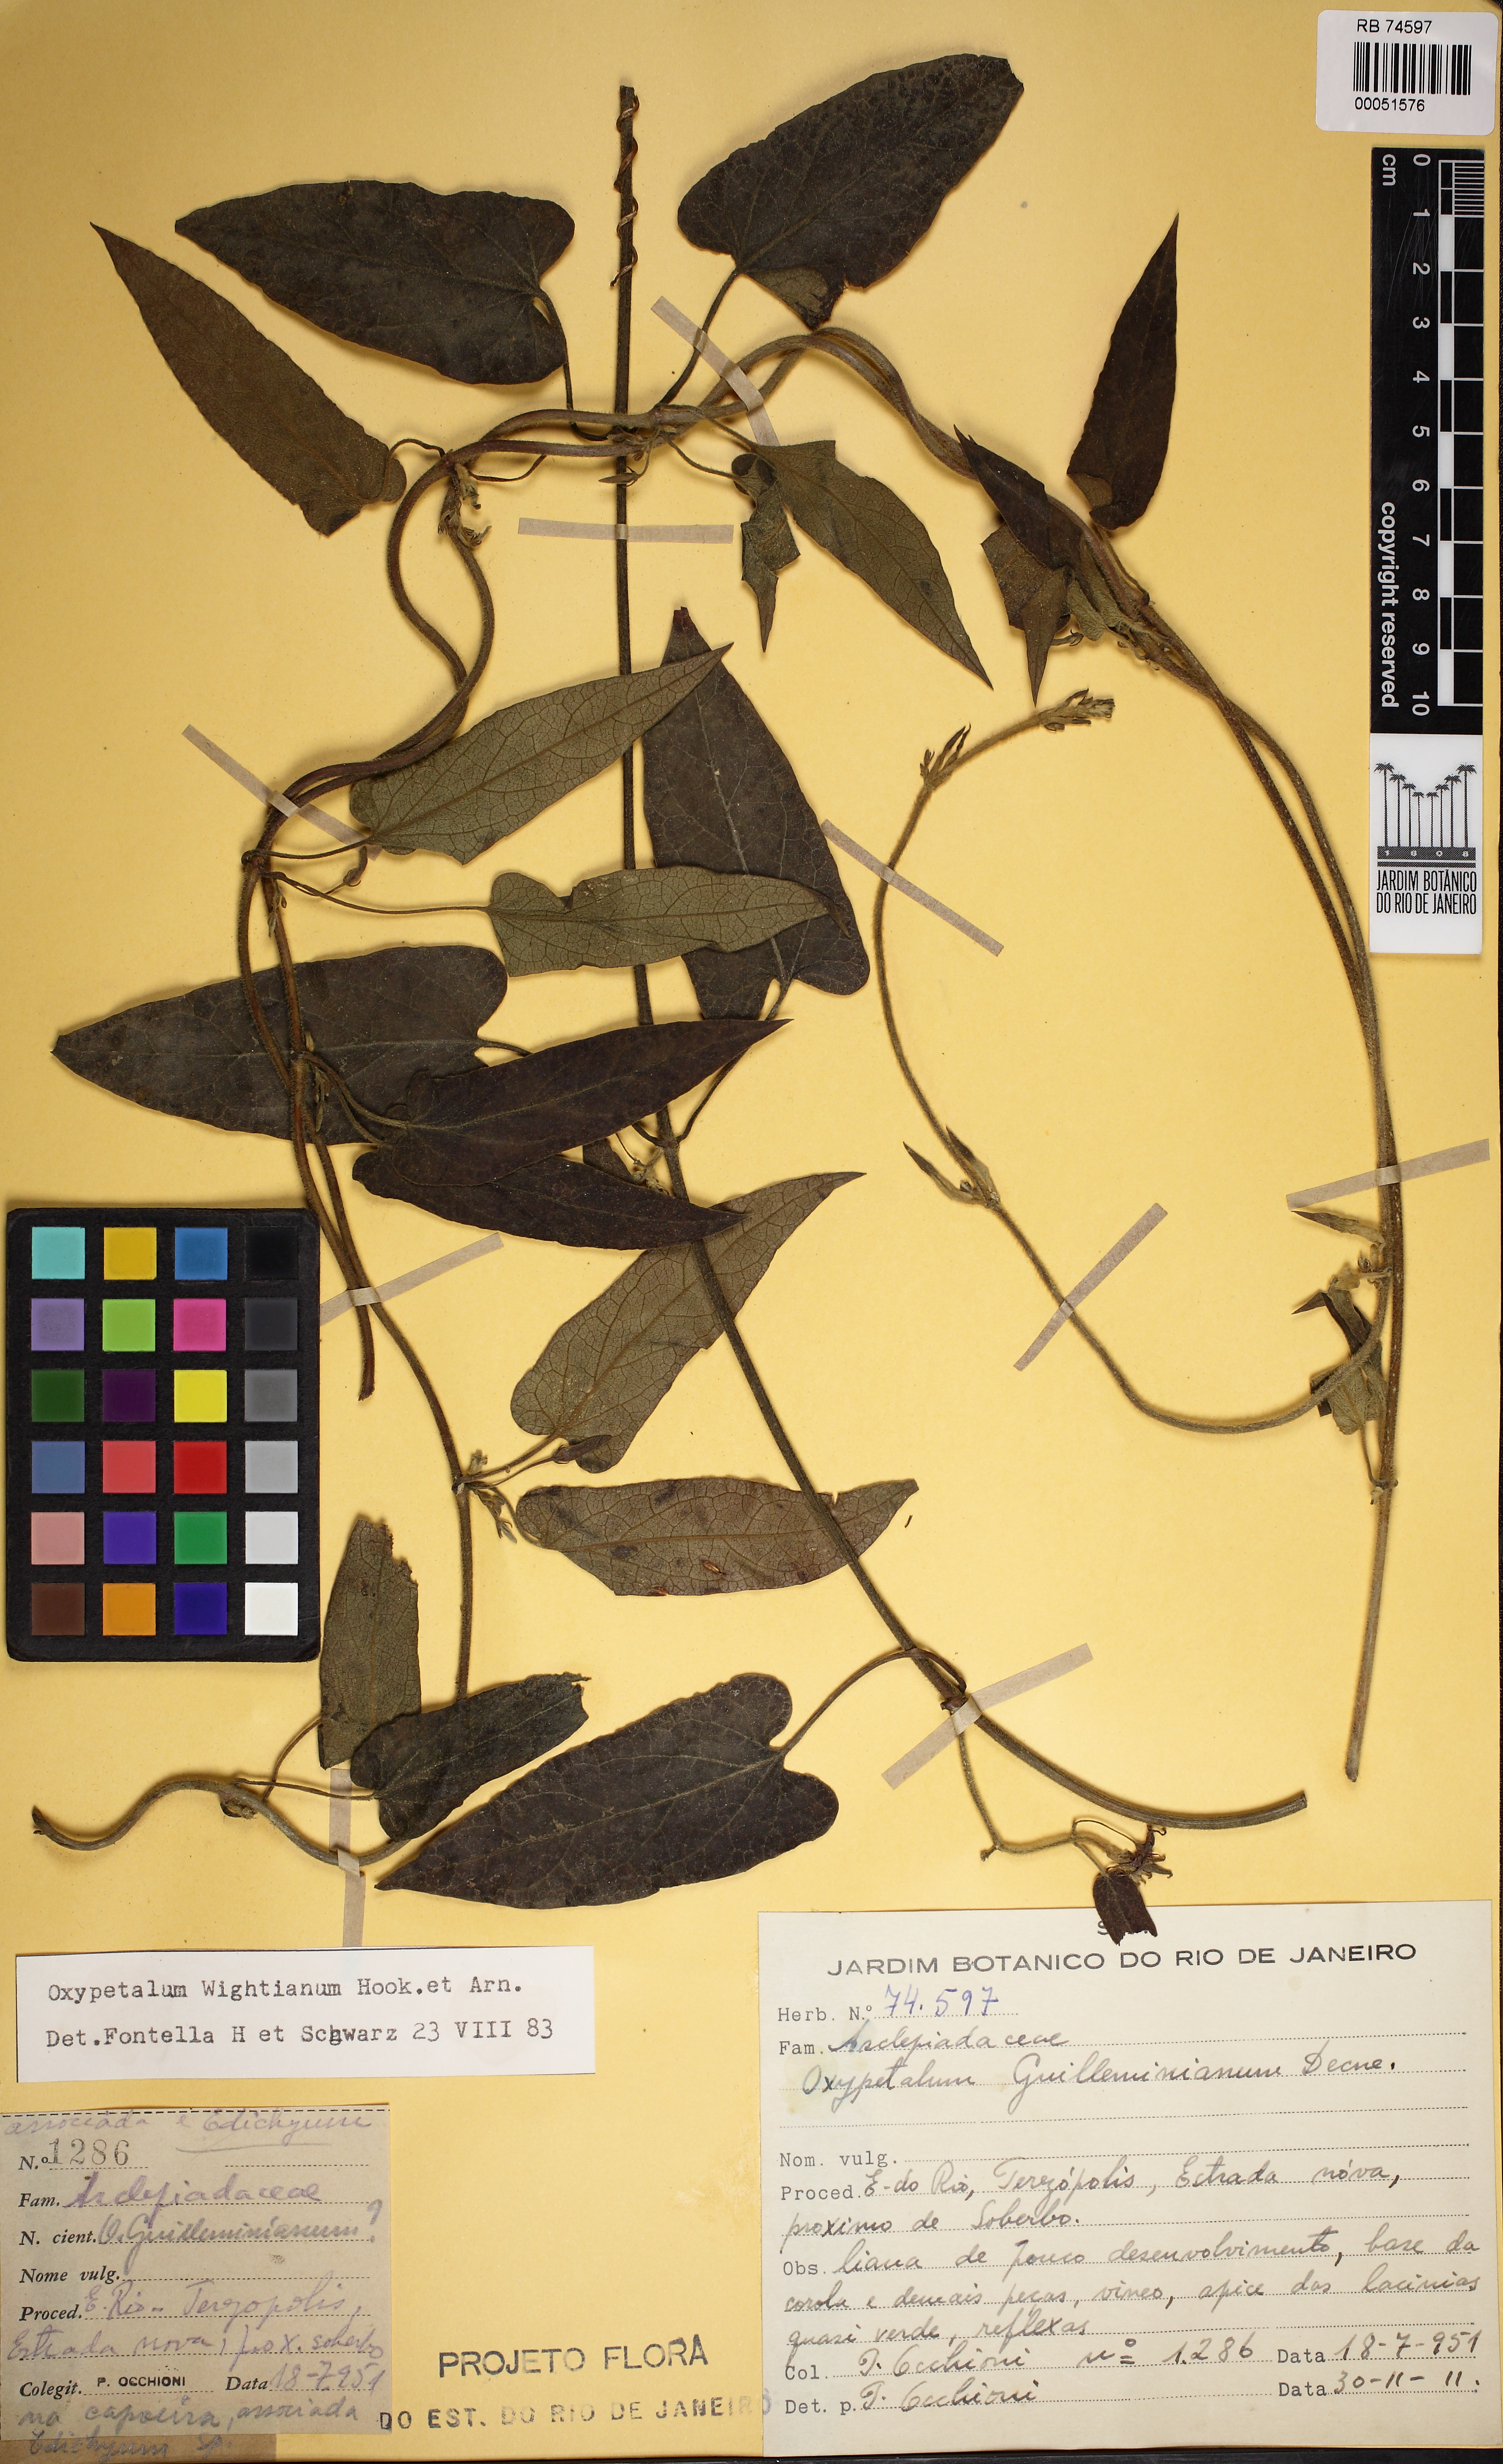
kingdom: Plantae
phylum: Tracheophyta
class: Magnoliopsida
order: Gentianales
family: Apocynaceae
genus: Oxypetalum
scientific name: Oxypetalum wightianum
